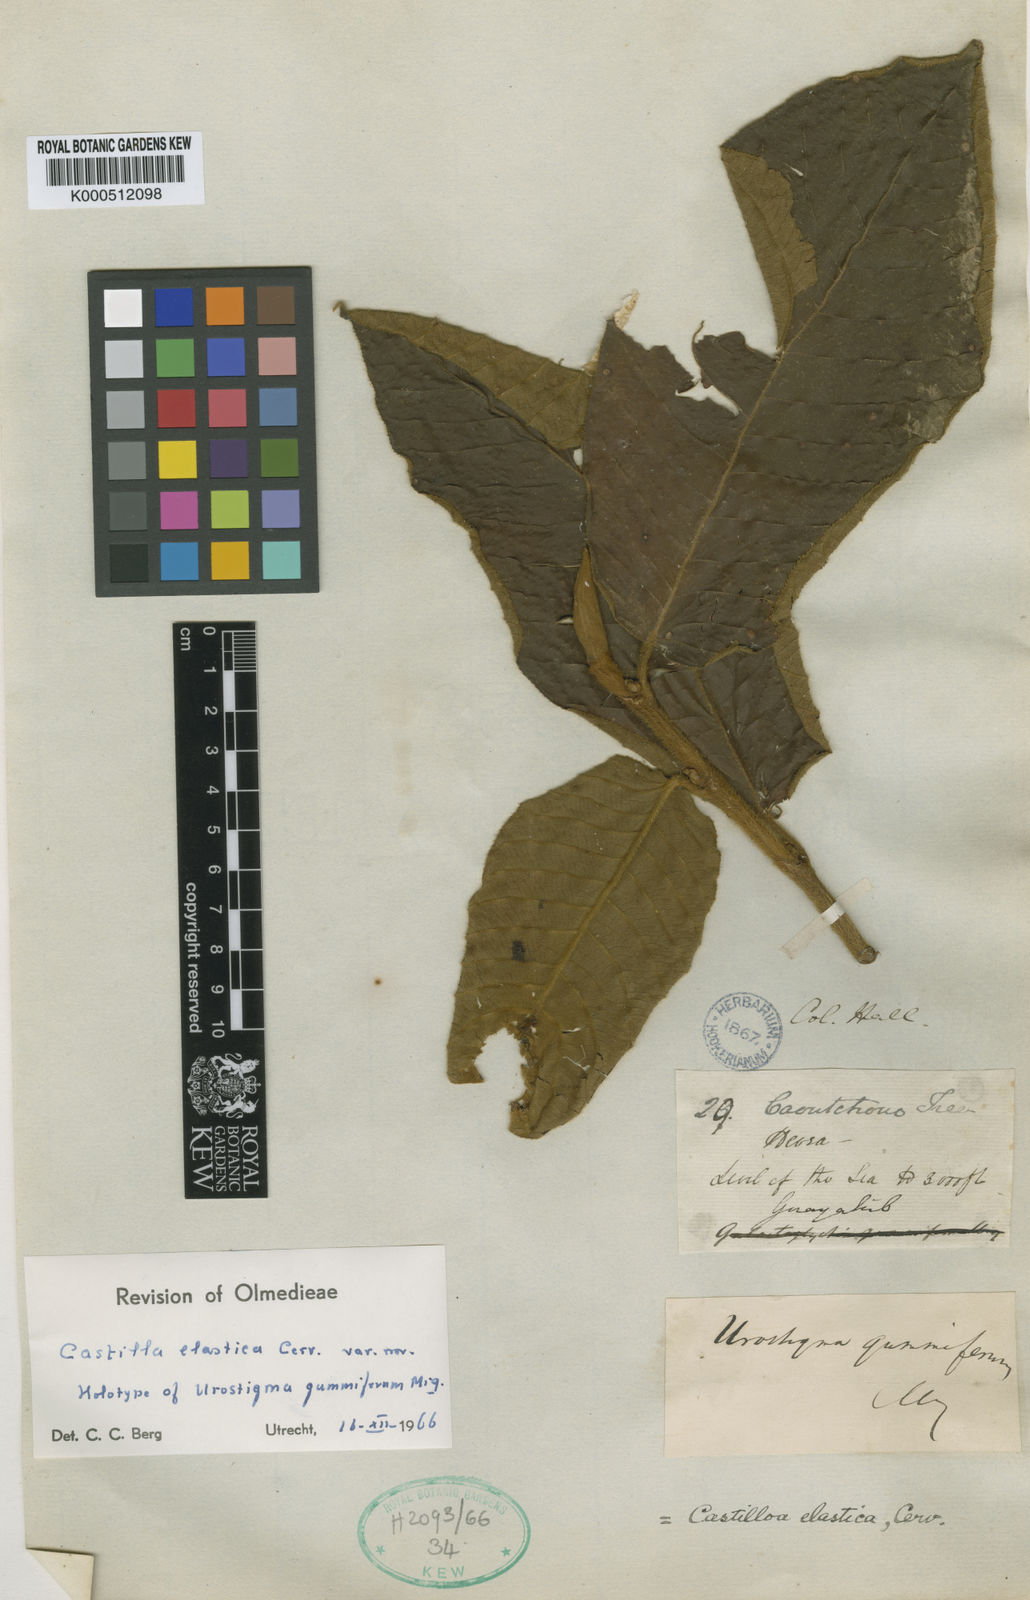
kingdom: Plantae
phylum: Tracheophyta
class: Magnoliopsida
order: Rosales
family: Moraceae
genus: Castilla
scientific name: Castilla elastica
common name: Castilla rubber
